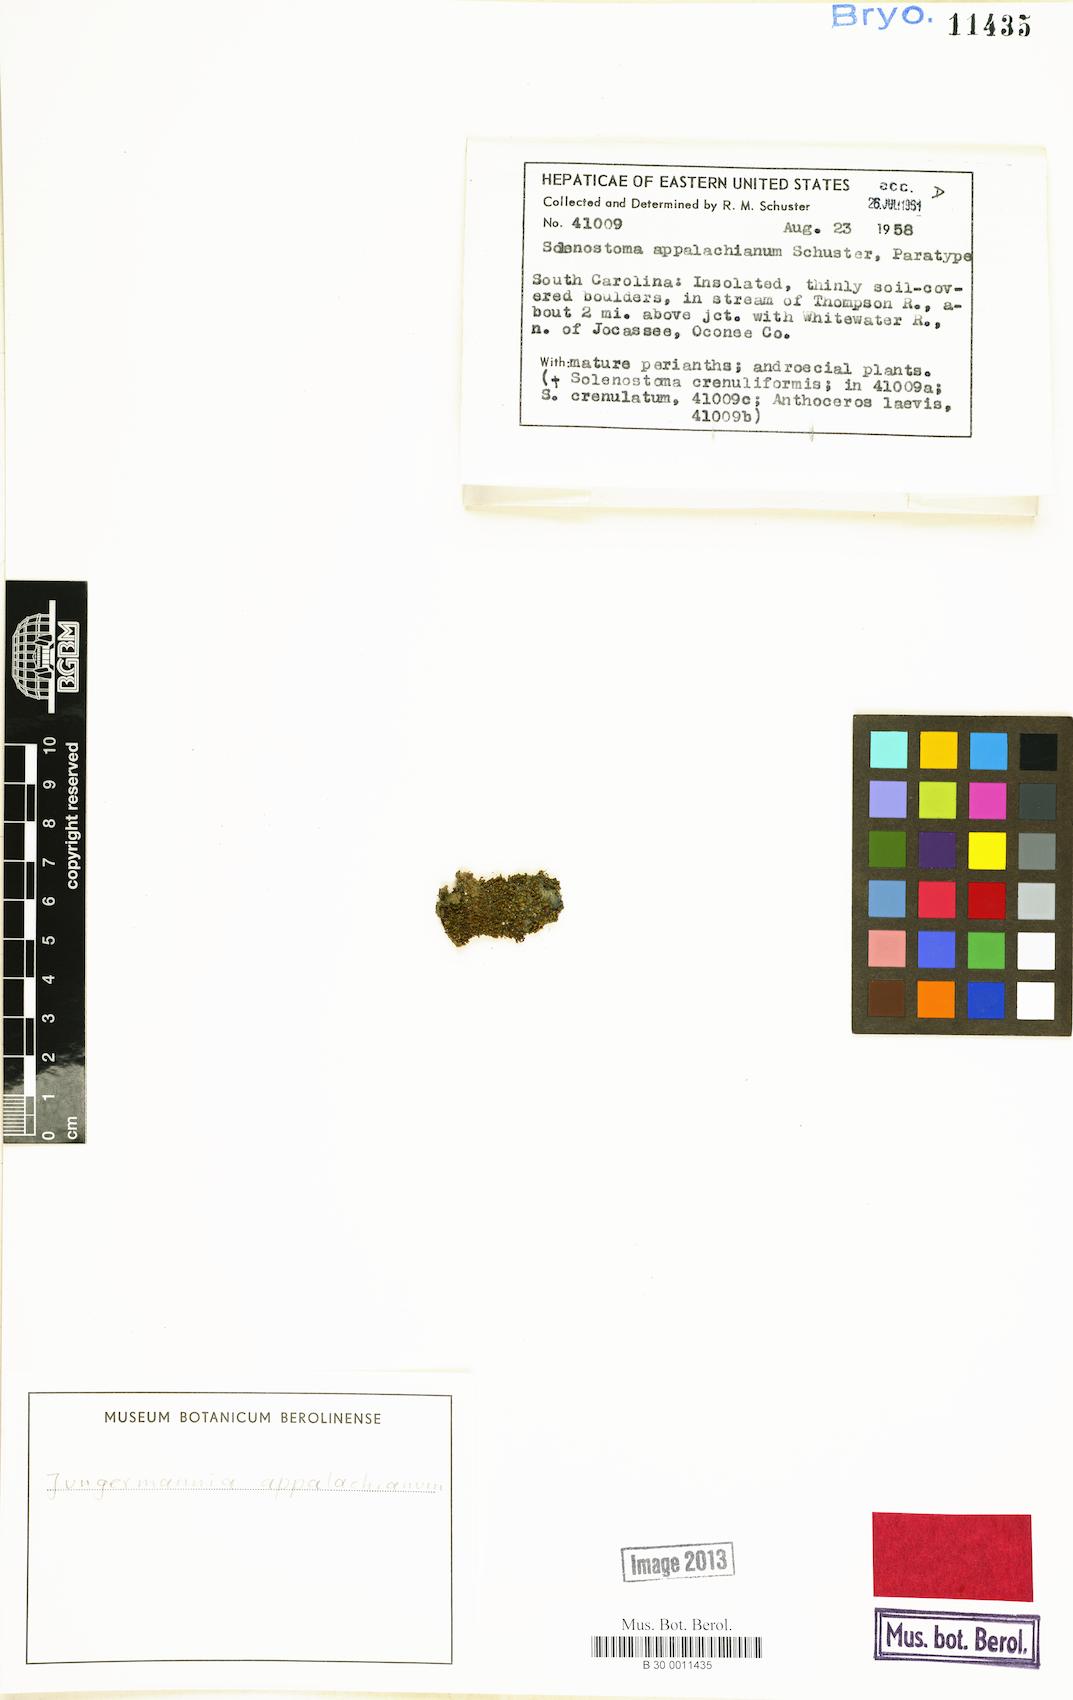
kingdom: Plantae
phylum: Marchantiophyta
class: Jungermanniopsida
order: Jungermanniales
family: Jungermanniaceae
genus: Jungermannia
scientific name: Jungermannia
